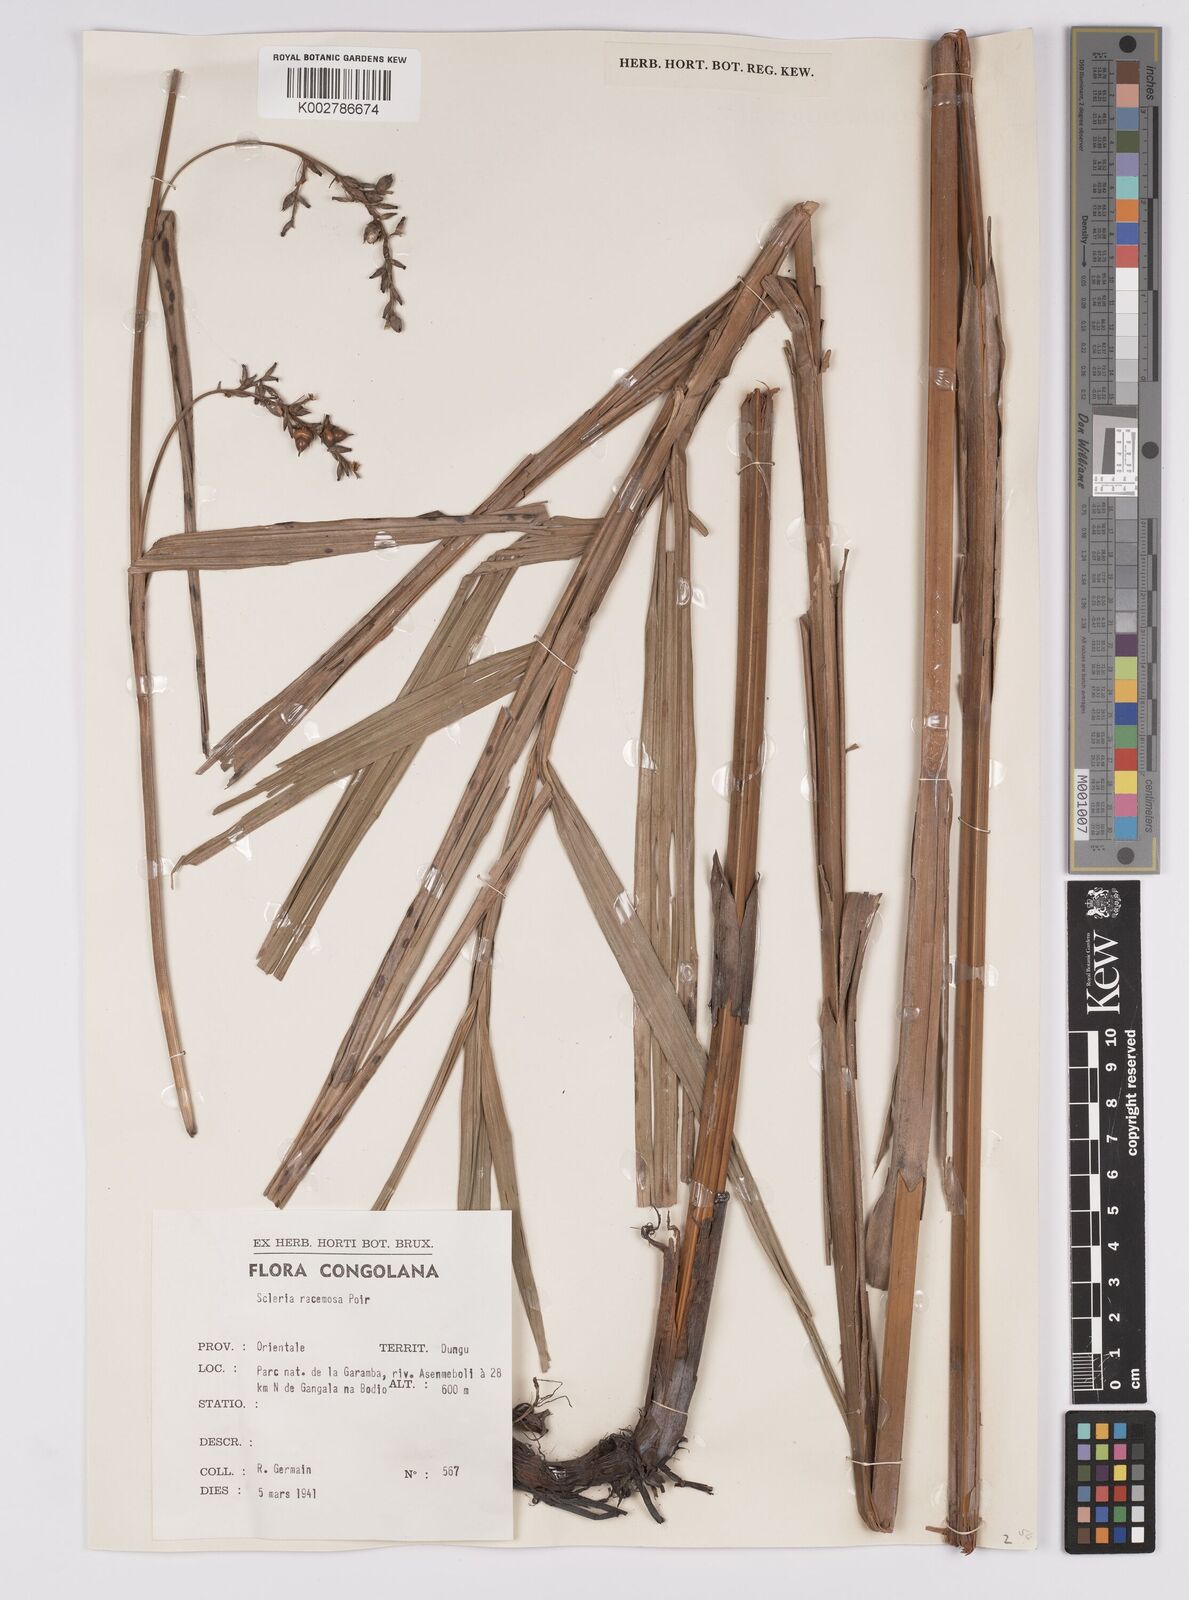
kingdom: Plantae
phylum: Tracheophyta
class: Liliopsida
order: Poales
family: Cyperaceae
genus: Scleria
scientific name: Scleria racemosa
